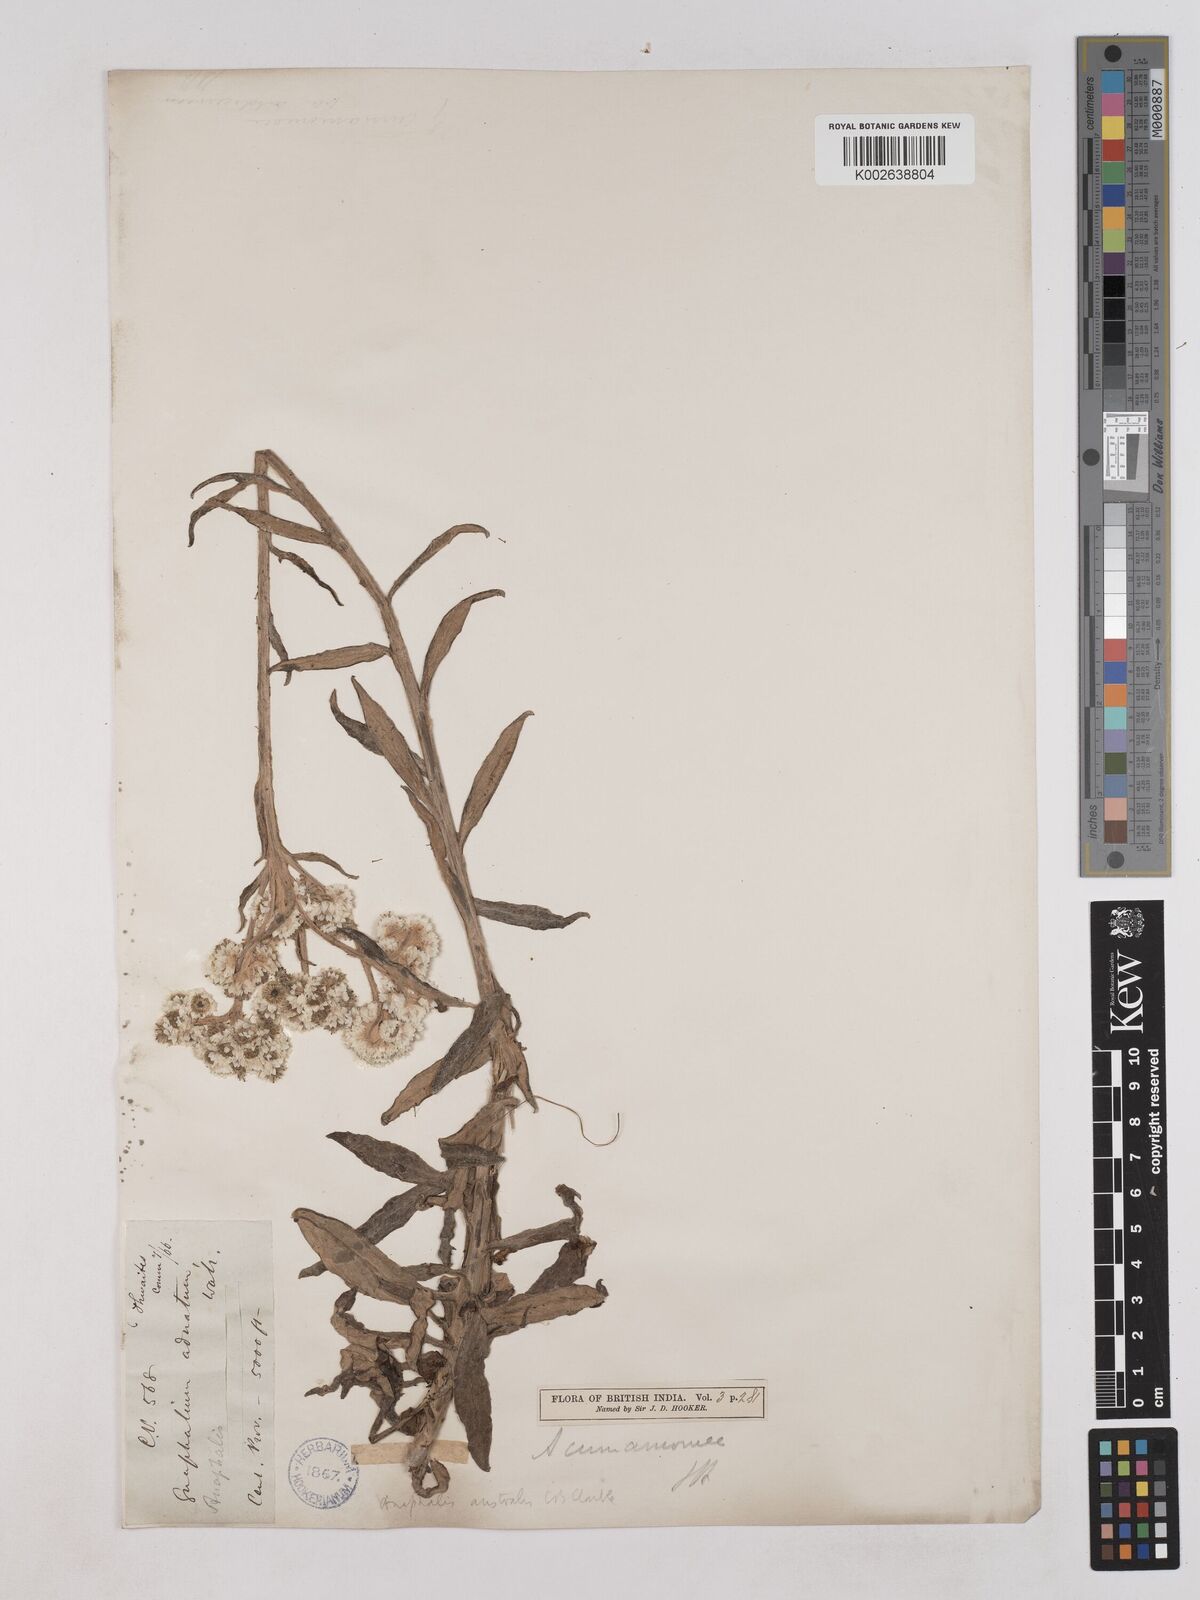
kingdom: Plantae
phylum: Tracheophyta
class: Magnoliopsida
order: Asterales
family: Asteraceae
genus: Anaphalis
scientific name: Anaphalis marcescens
